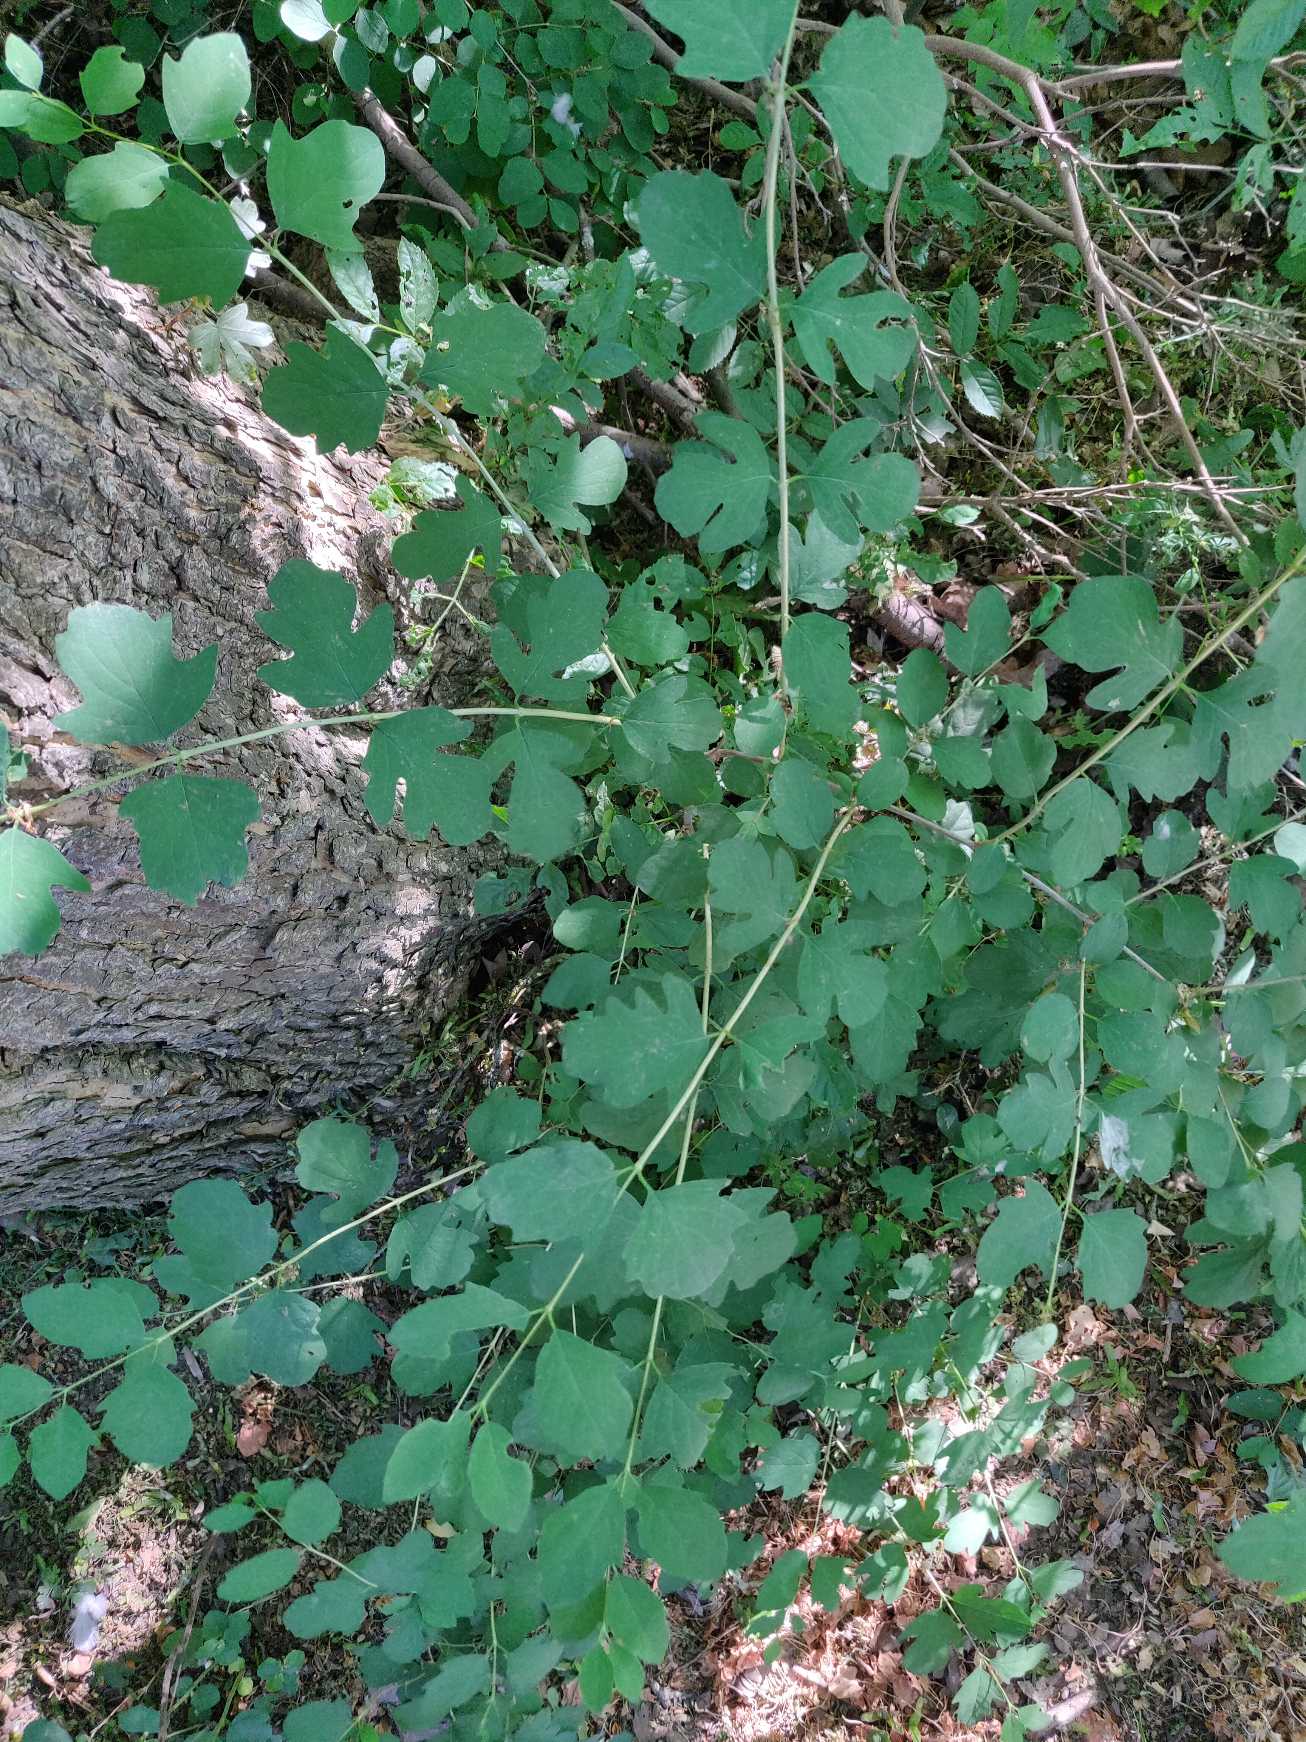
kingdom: Plantae
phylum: Tracheophyta
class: Magnoliopsida
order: Dipsacales
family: Caprifoliaceae
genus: Symphoricarpos
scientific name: Symphoricarpos albus
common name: Almindelig snebær
